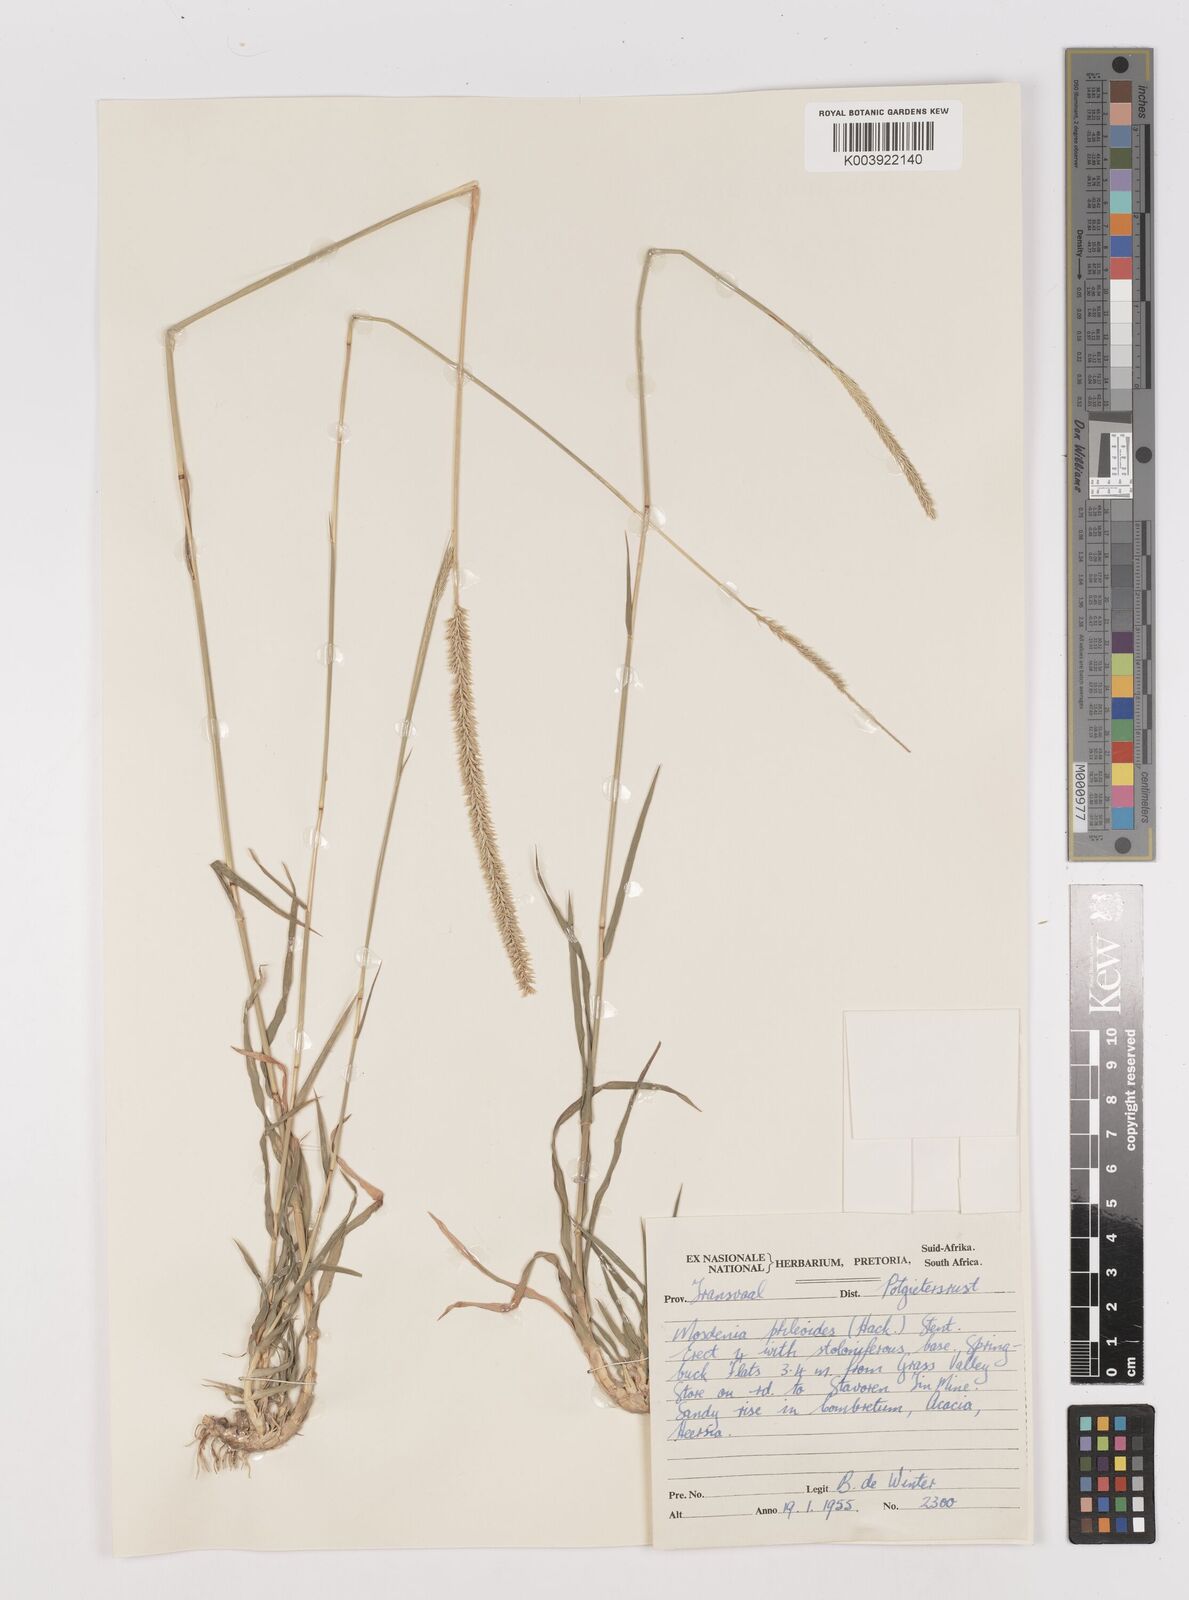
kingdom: Plantae
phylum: Tracheophyta
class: Liliopsida
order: Poales
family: Poaceae
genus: Mosdenia
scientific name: Mosdenia leptostachys
